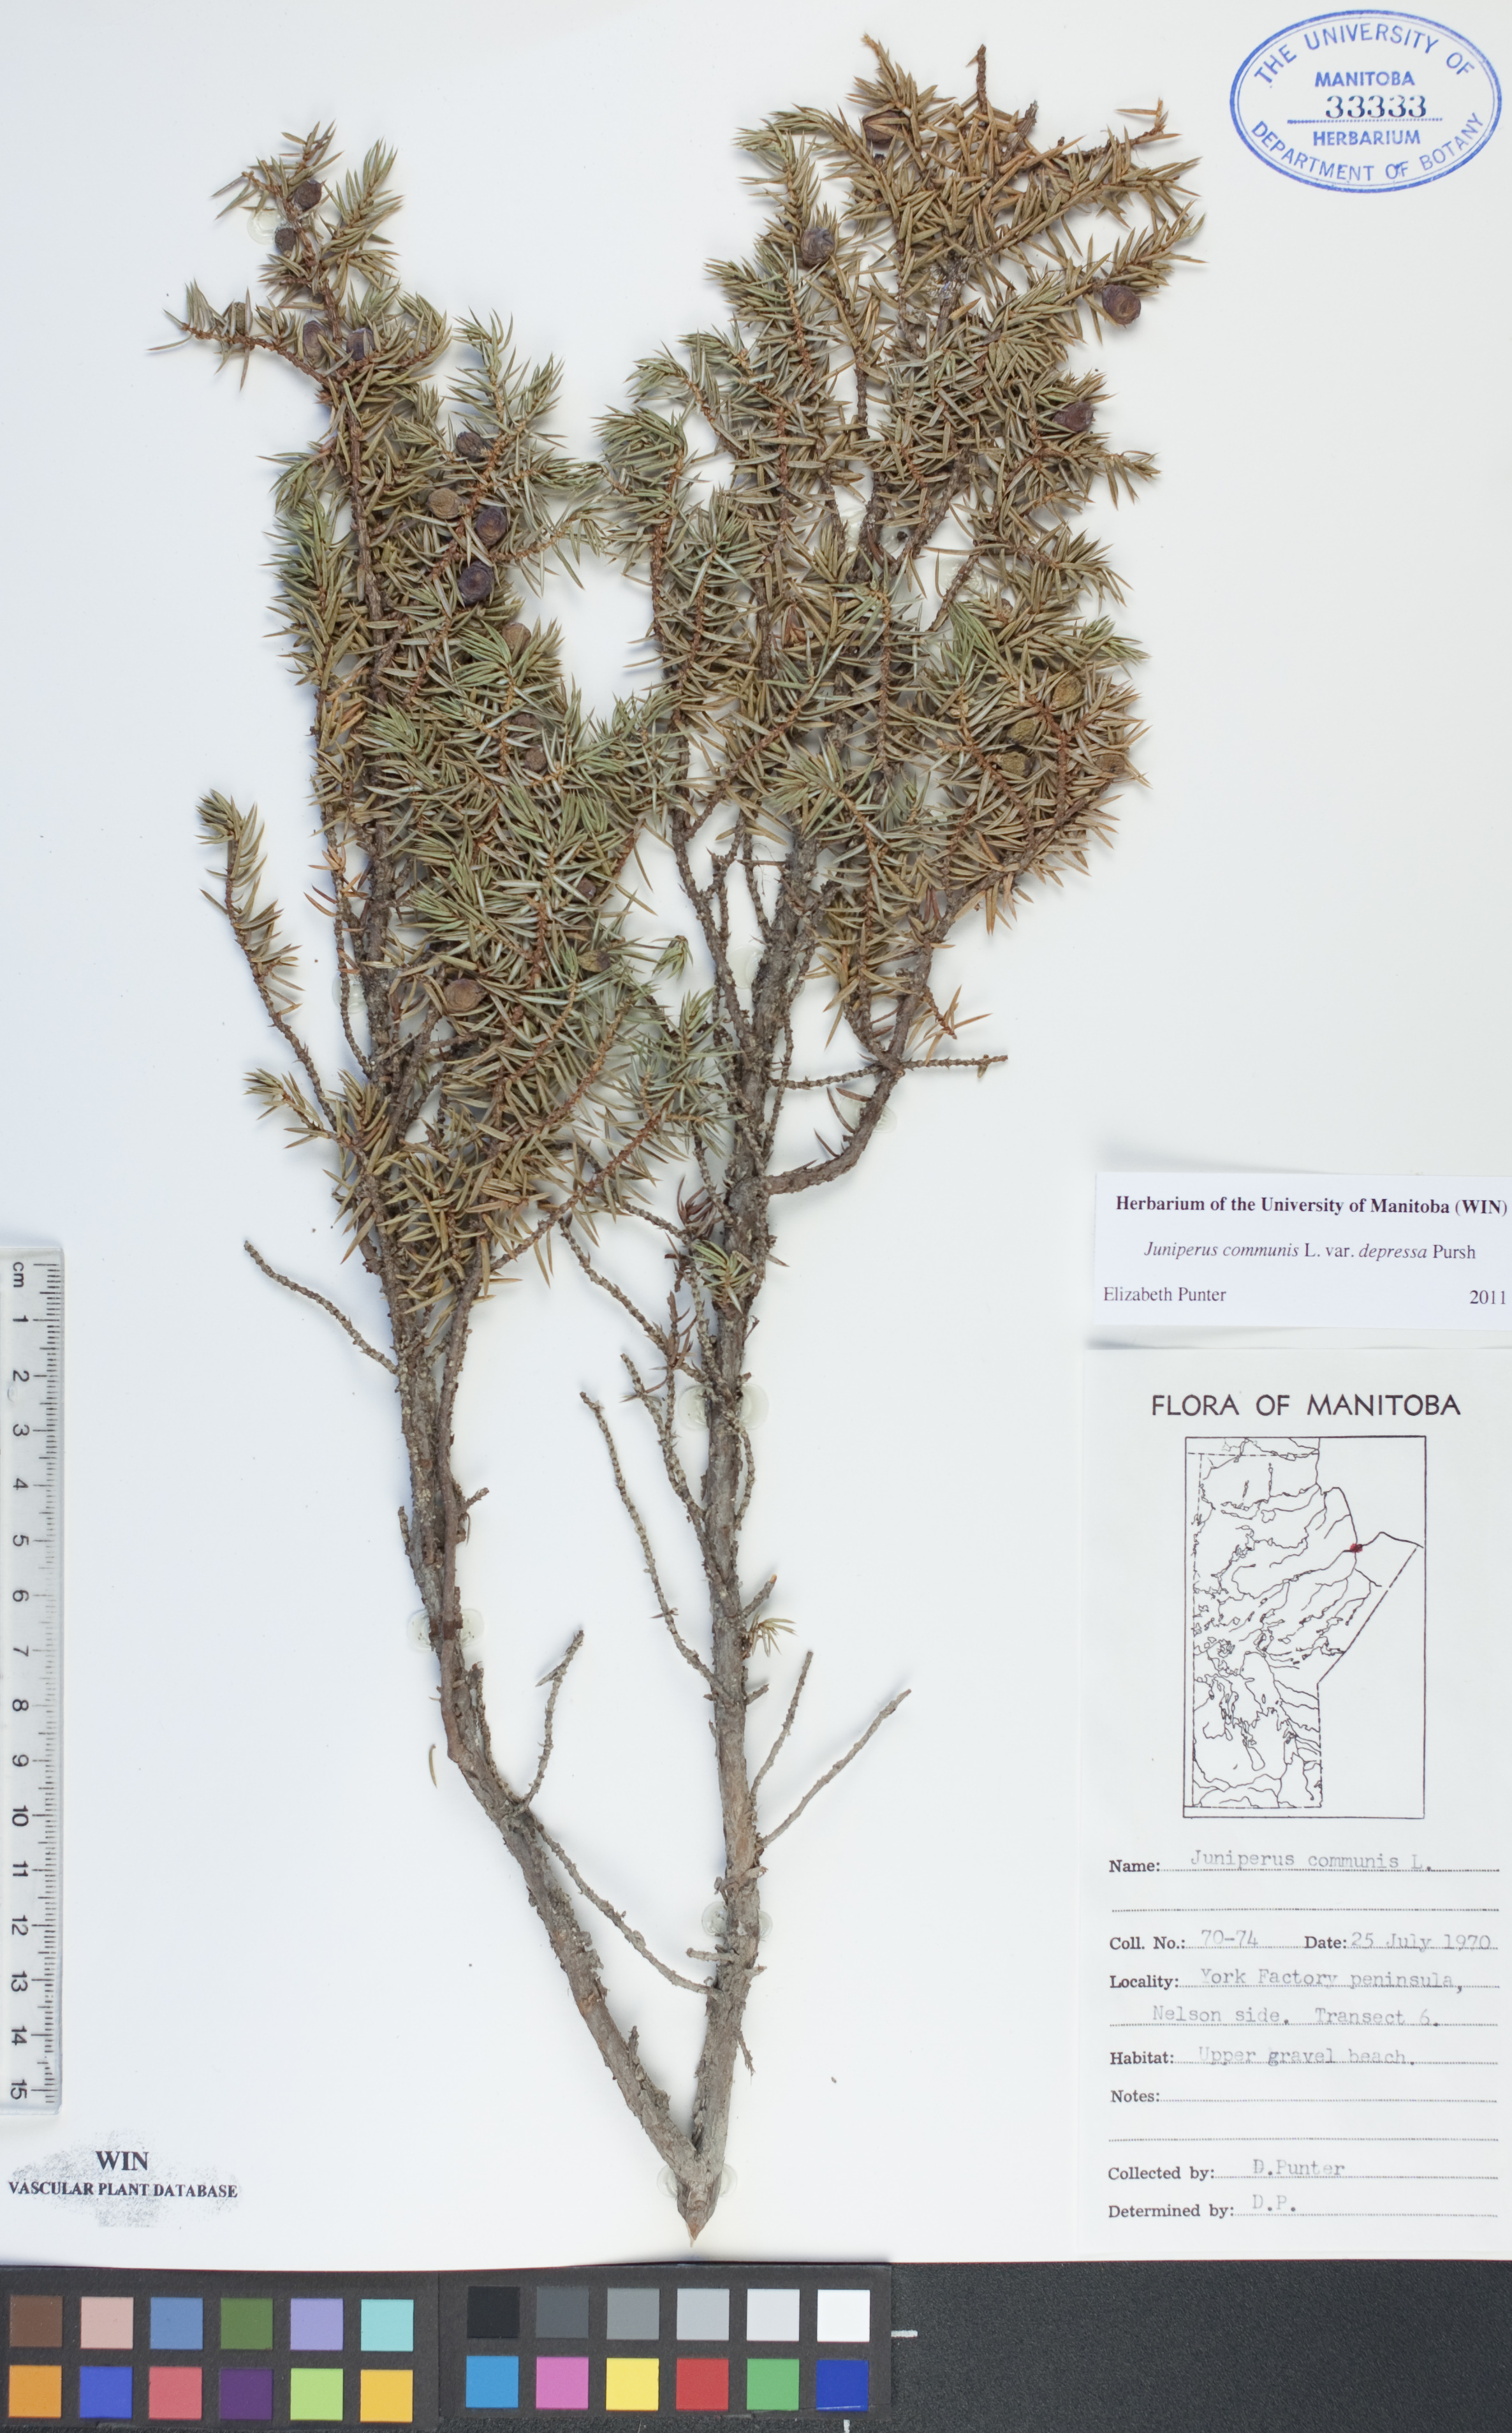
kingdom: Plantae
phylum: Tracheophyta
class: Pinopsida
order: Pinales
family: Cupressaceae
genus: Juniperus
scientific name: Juniperus communis
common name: Common juniper
